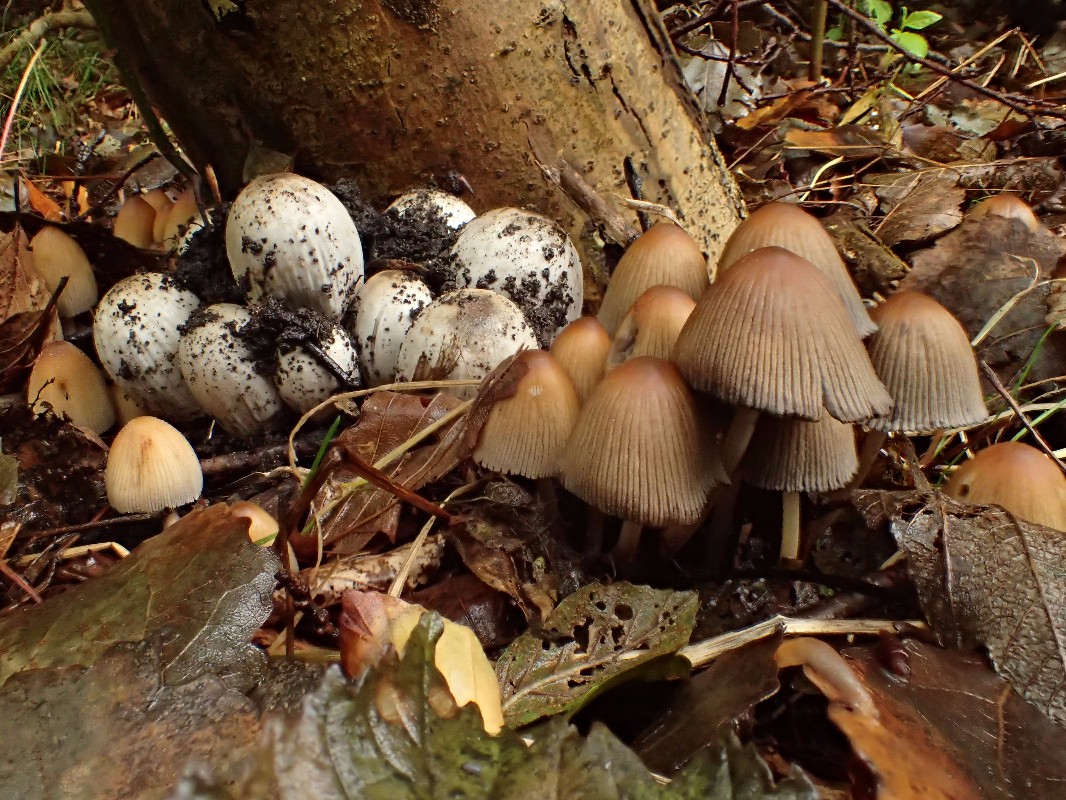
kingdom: Fungi
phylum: Basidiomycota
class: Agaricomycetes
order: Agaricales
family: Psathyrellaceae
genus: Coprinopsis
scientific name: Coprinopsis atramentaria
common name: almindelig blækhat
